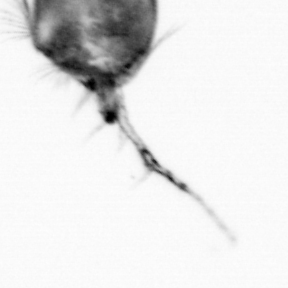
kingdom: Animalia
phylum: Arthropoda
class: Copepoda
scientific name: Copepoda
